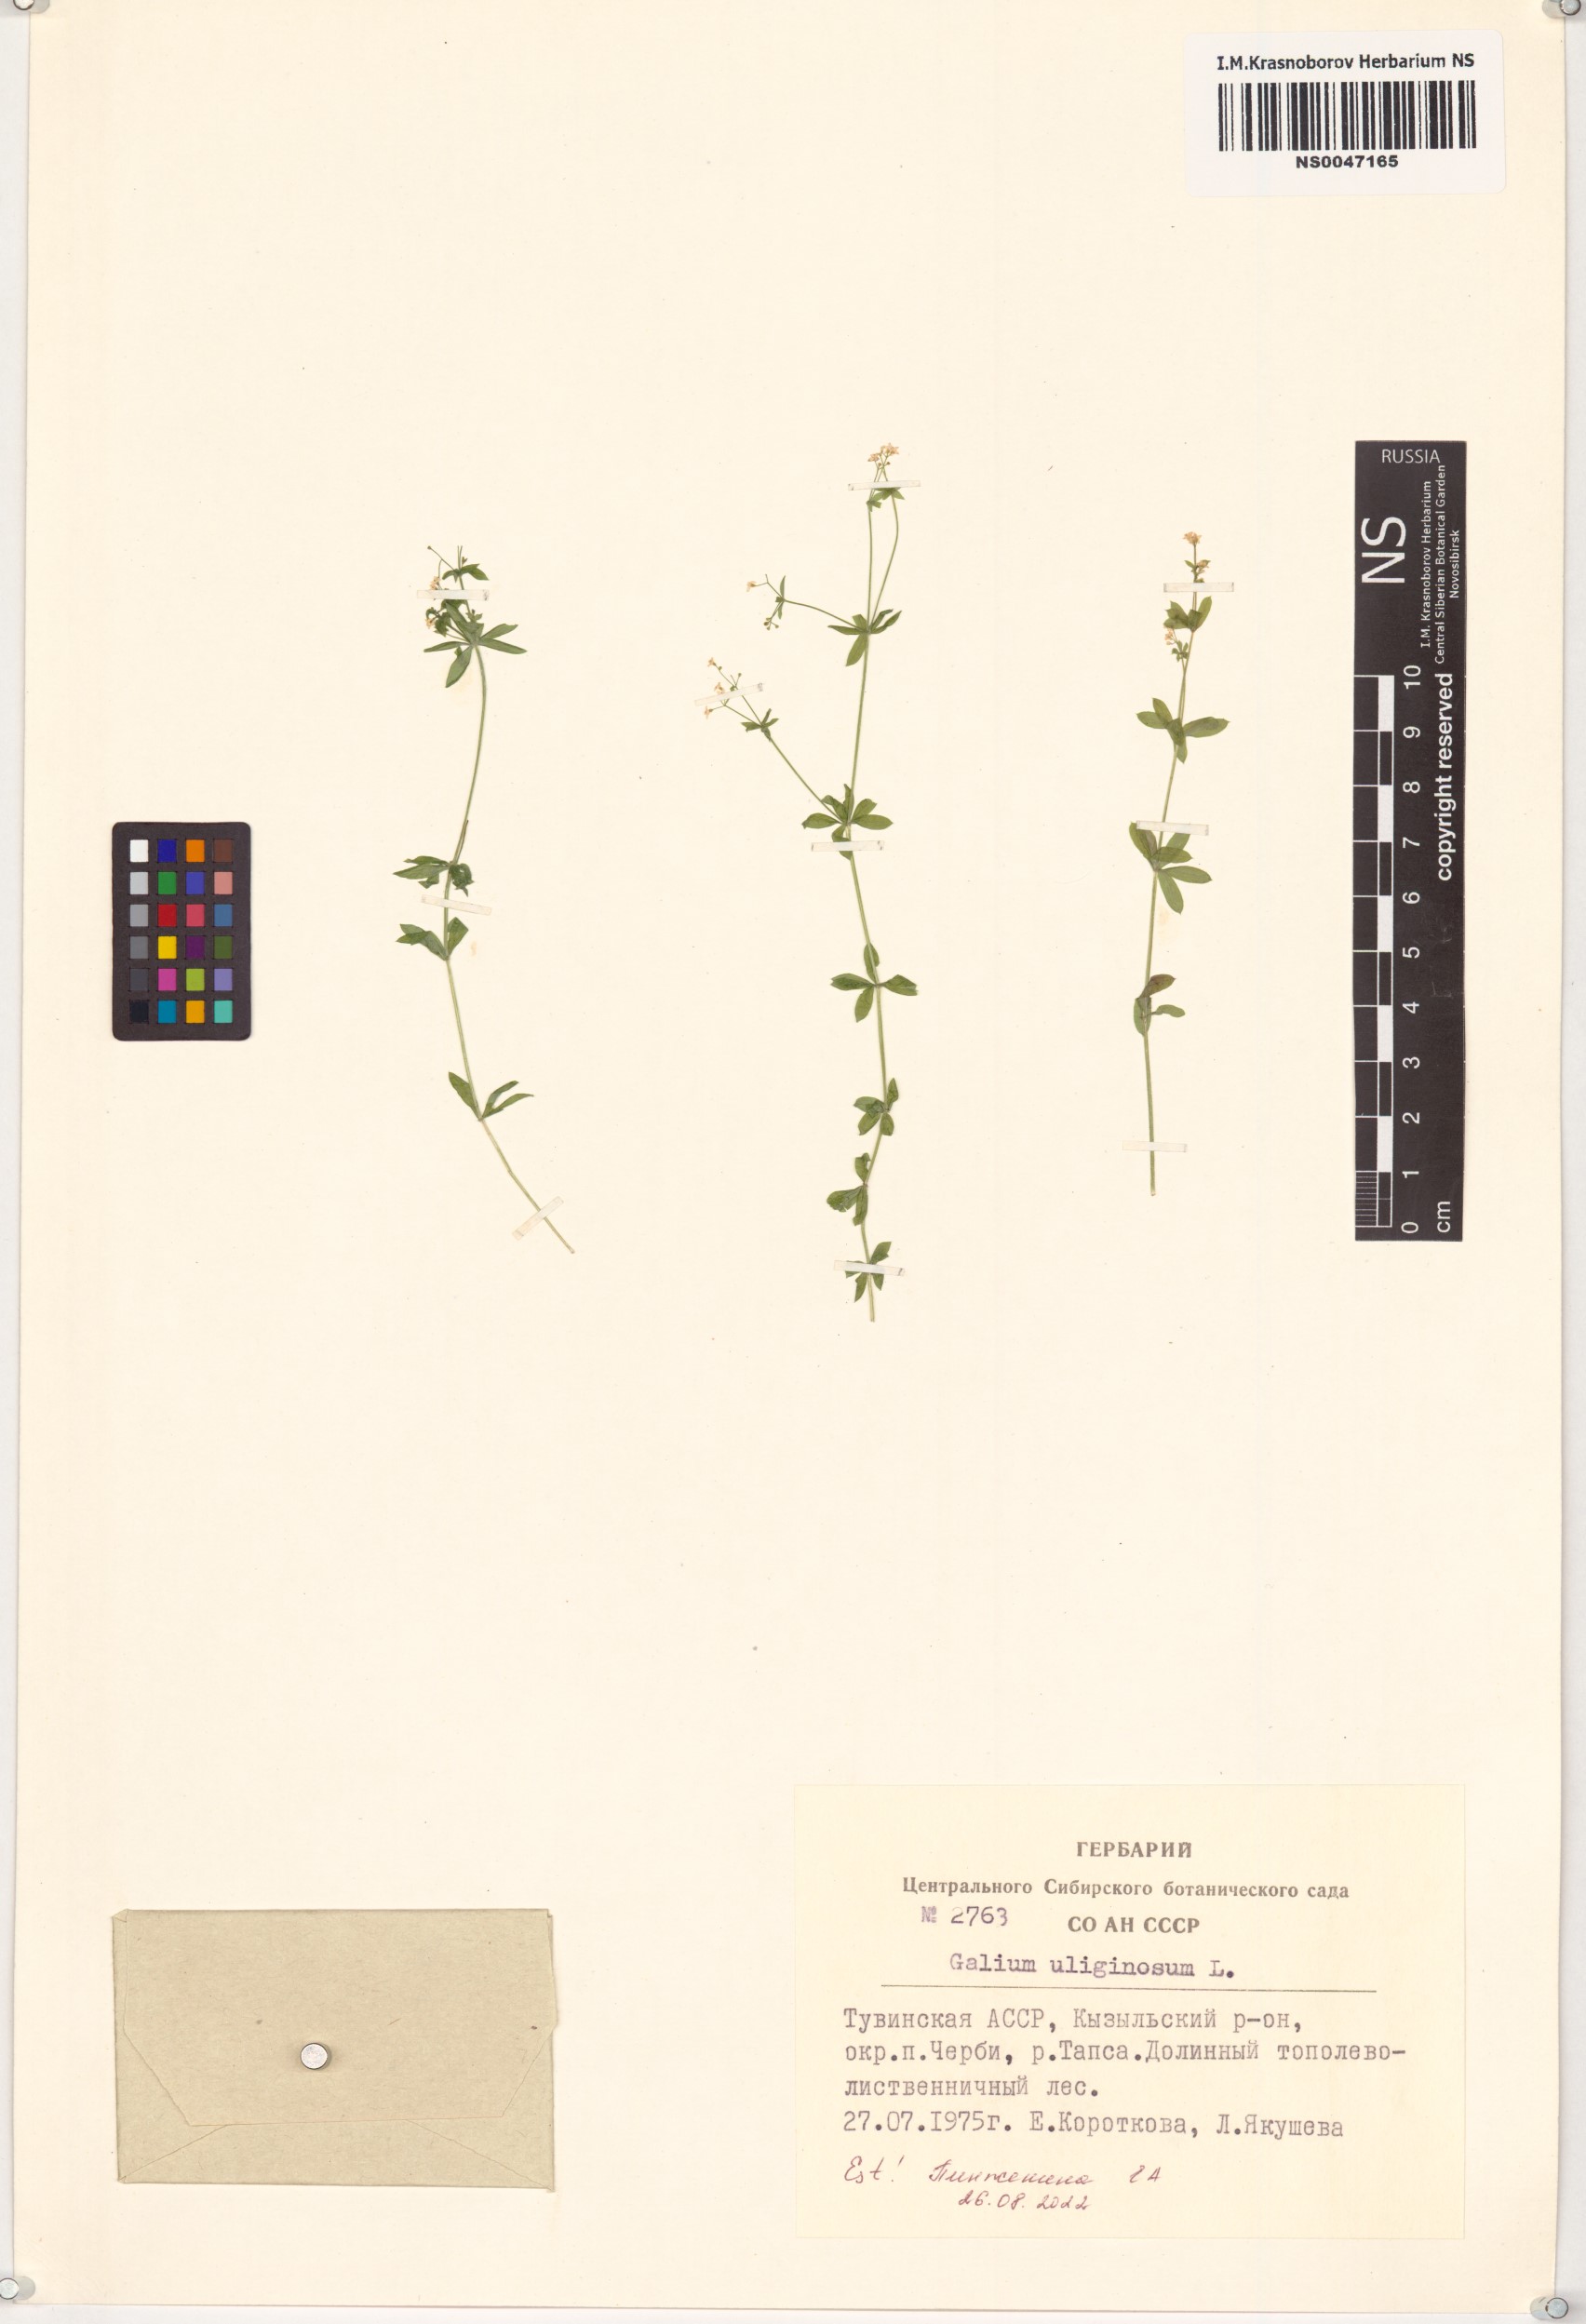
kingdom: Plantae
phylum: Tracheophyta
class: Magnoliopsida
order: Gentianales
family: Rubiaceae
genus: Galium
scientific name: Galium uliginosum
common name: Fen bedstraw
